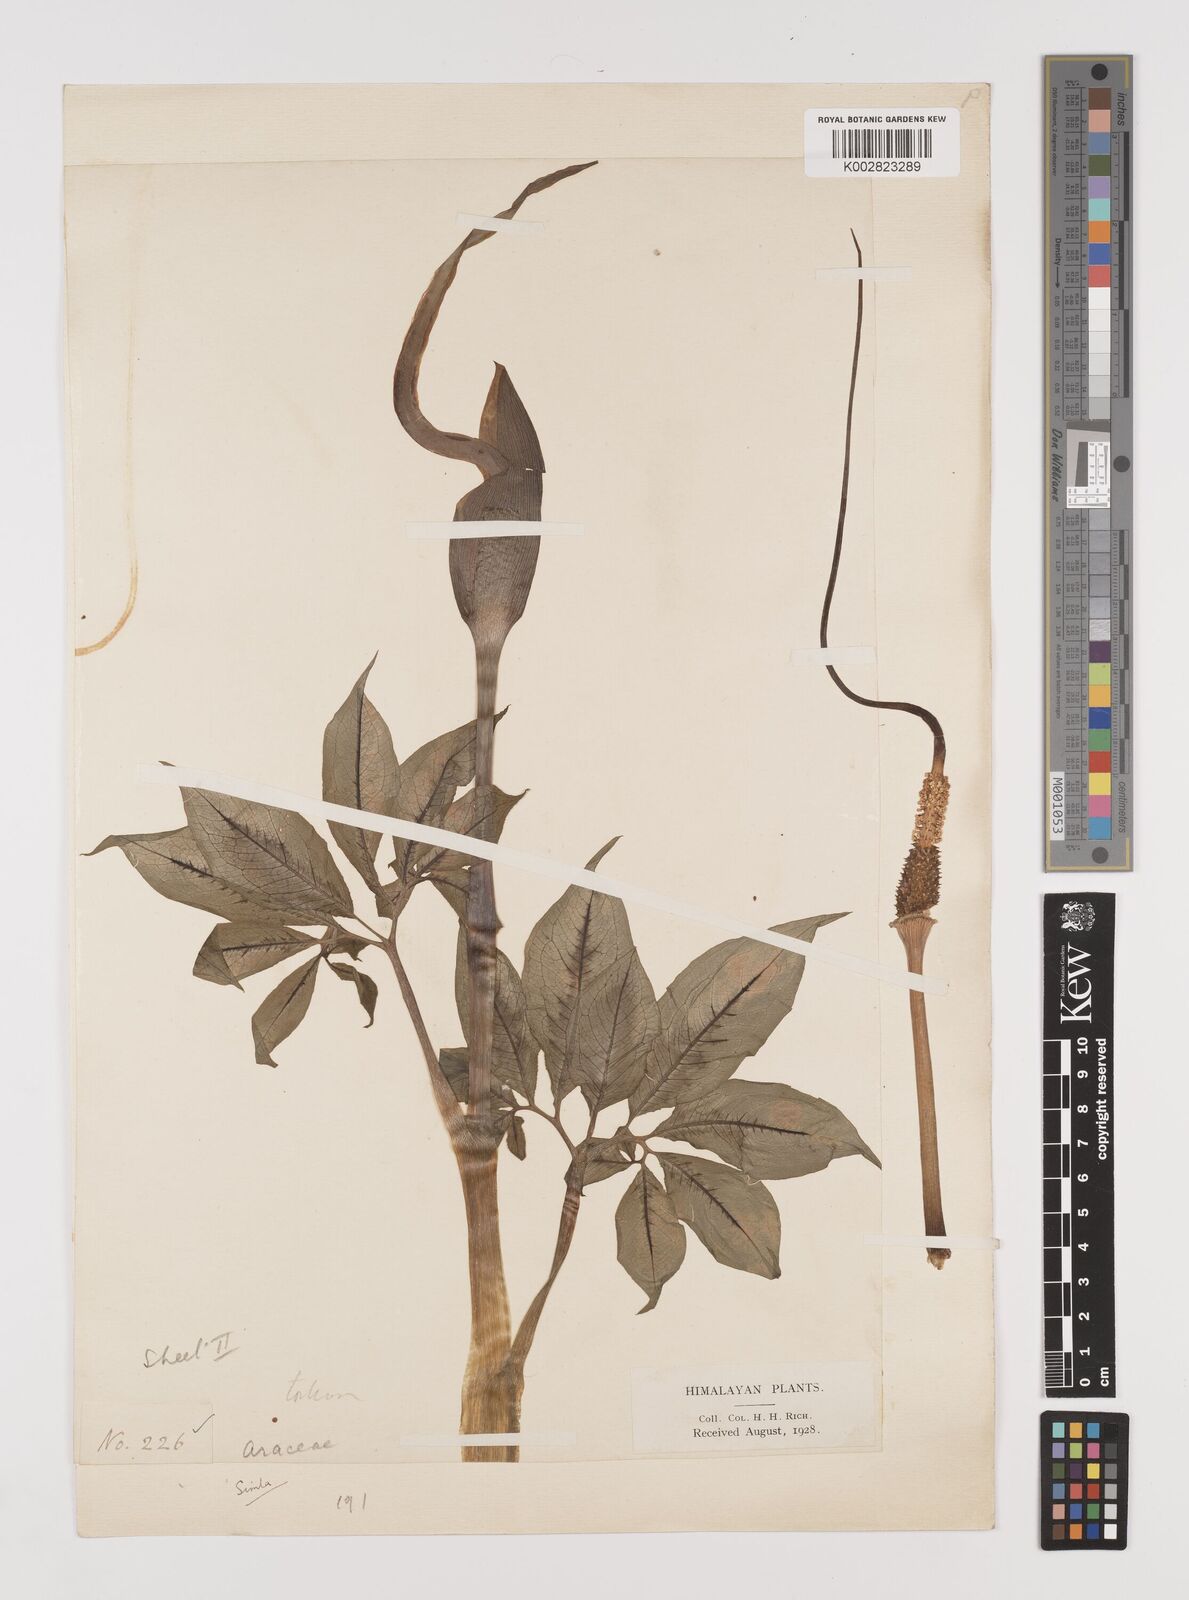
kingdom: Plantae
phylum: Tracheophyta
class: Liliopsida
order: Alismatales
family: Araceae
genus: Arisaema
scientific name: Arisaema tortuosum
